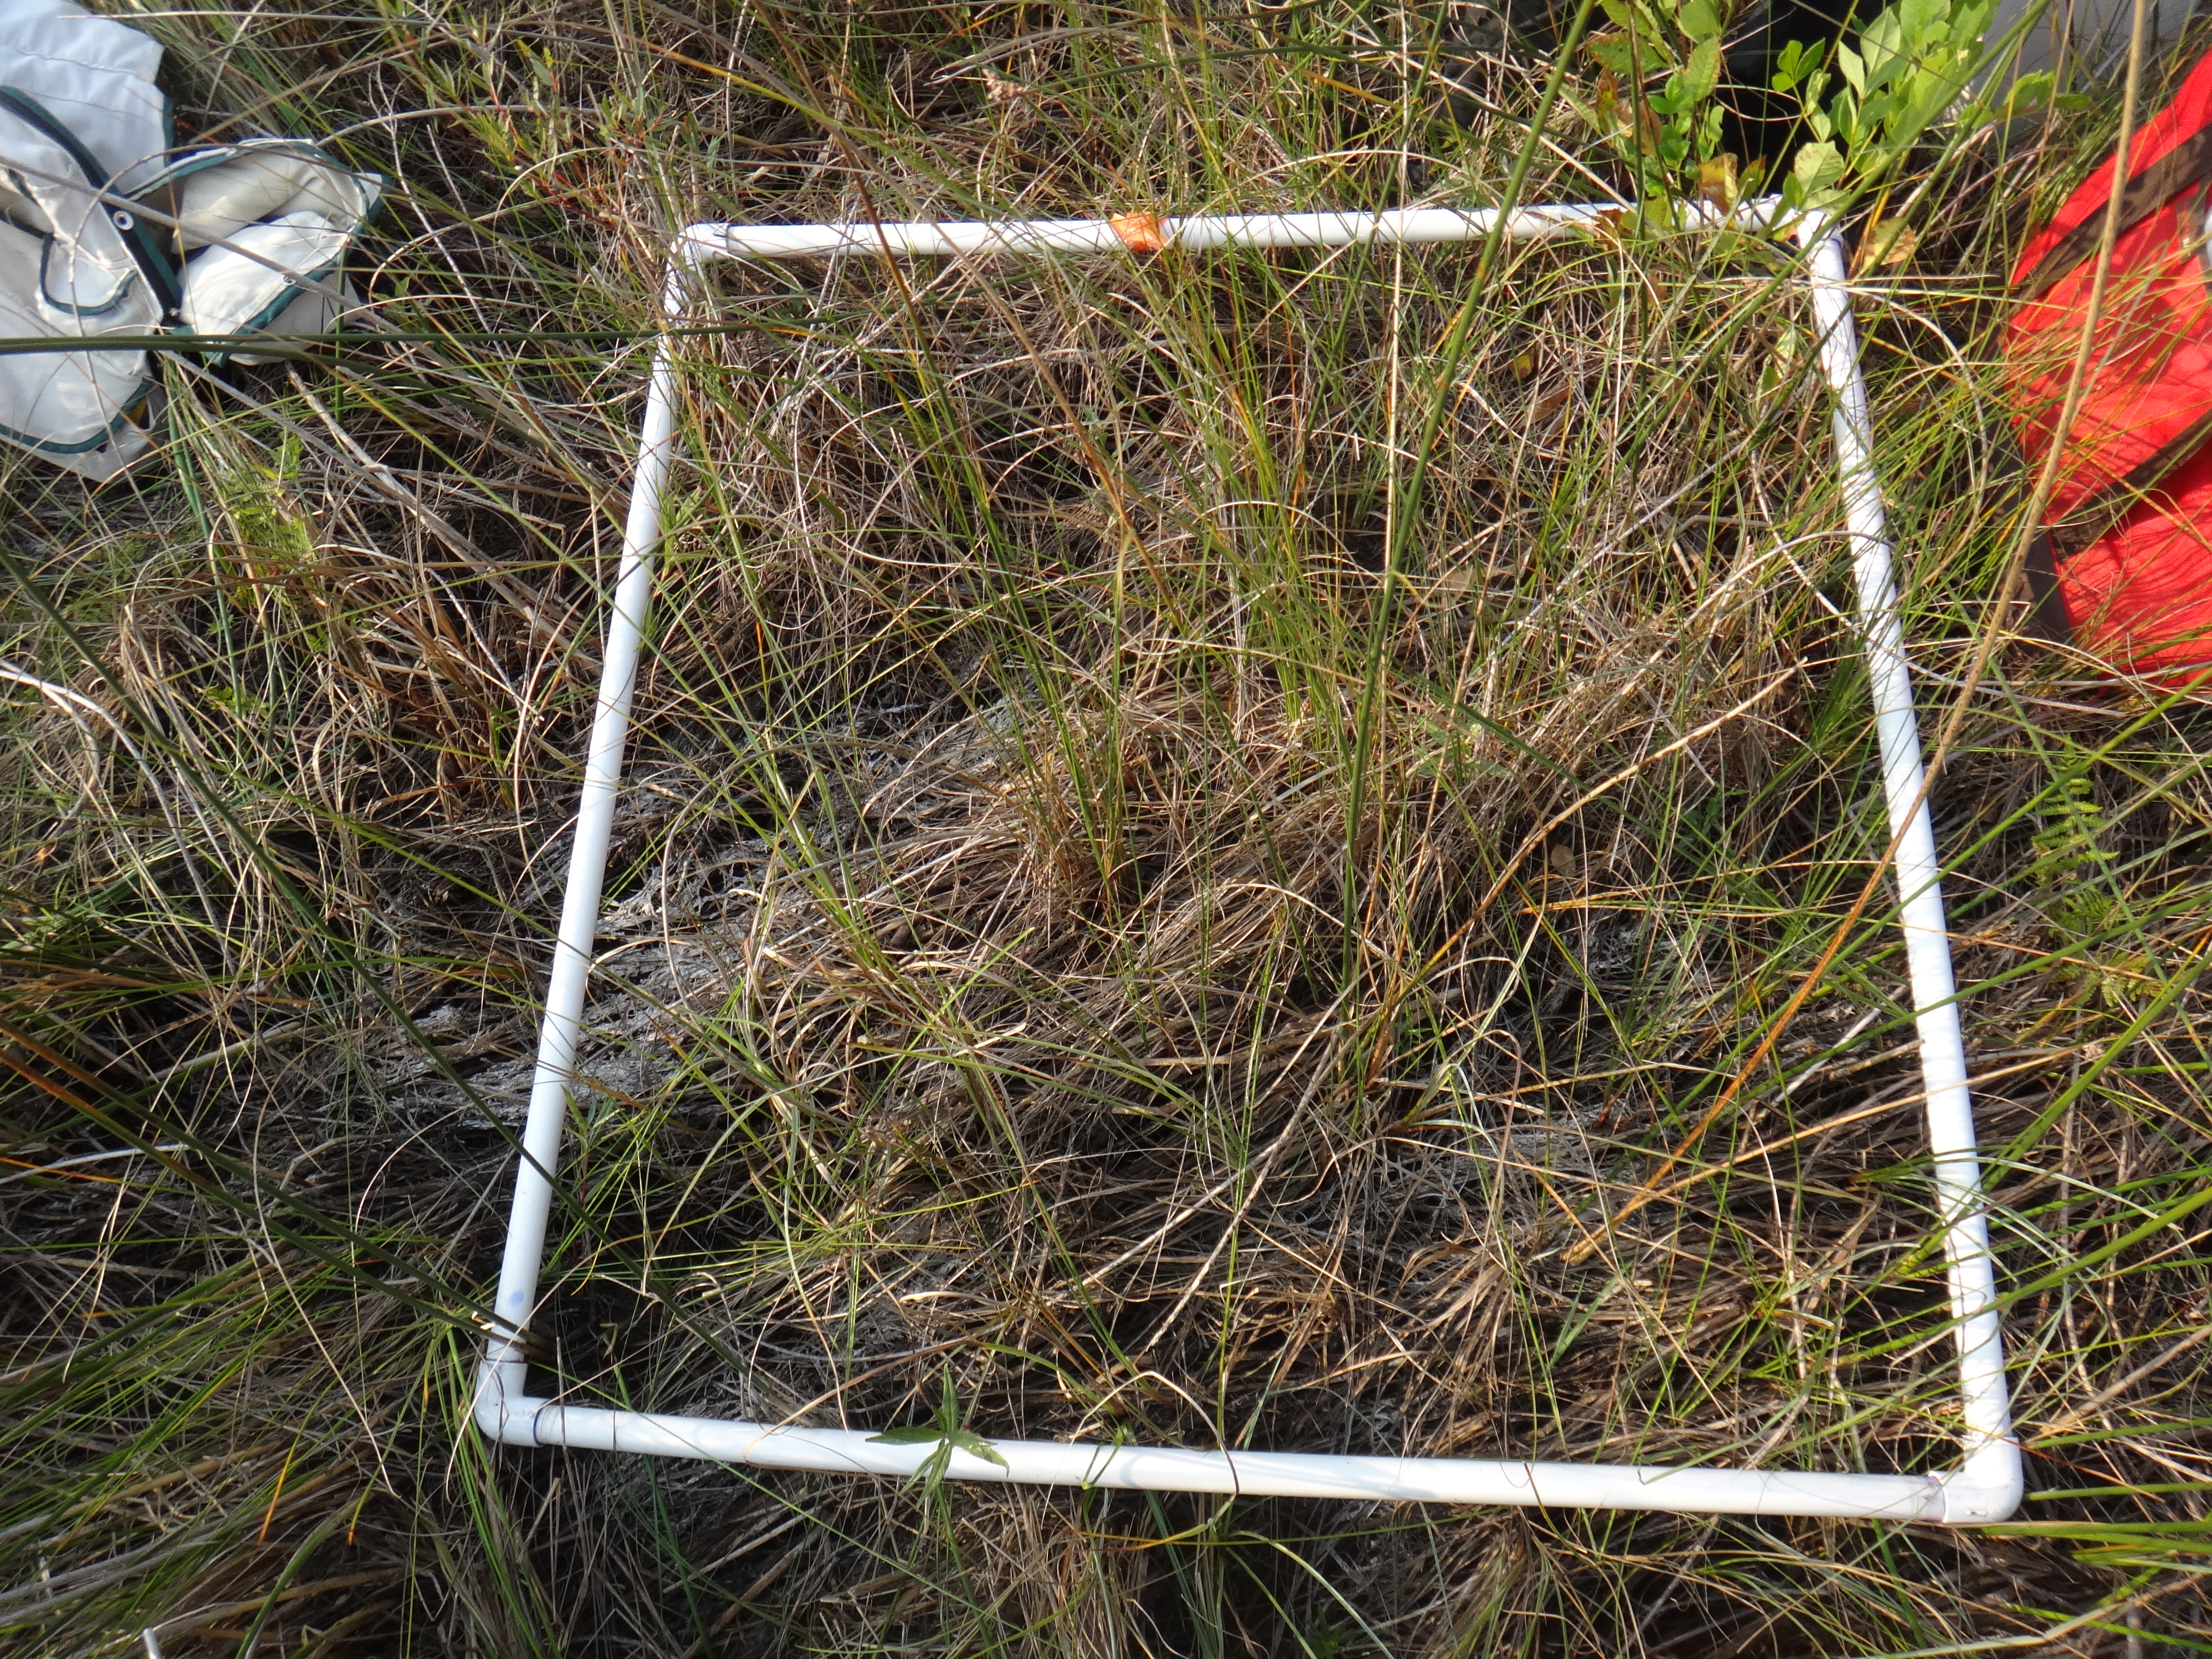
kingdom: Plantae
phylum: Tracheophyta
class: Magnoliopsida
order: Dipsacales
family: Viburnaceae
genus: Sambucus
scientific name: Sambucus canadensis
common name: American elder
